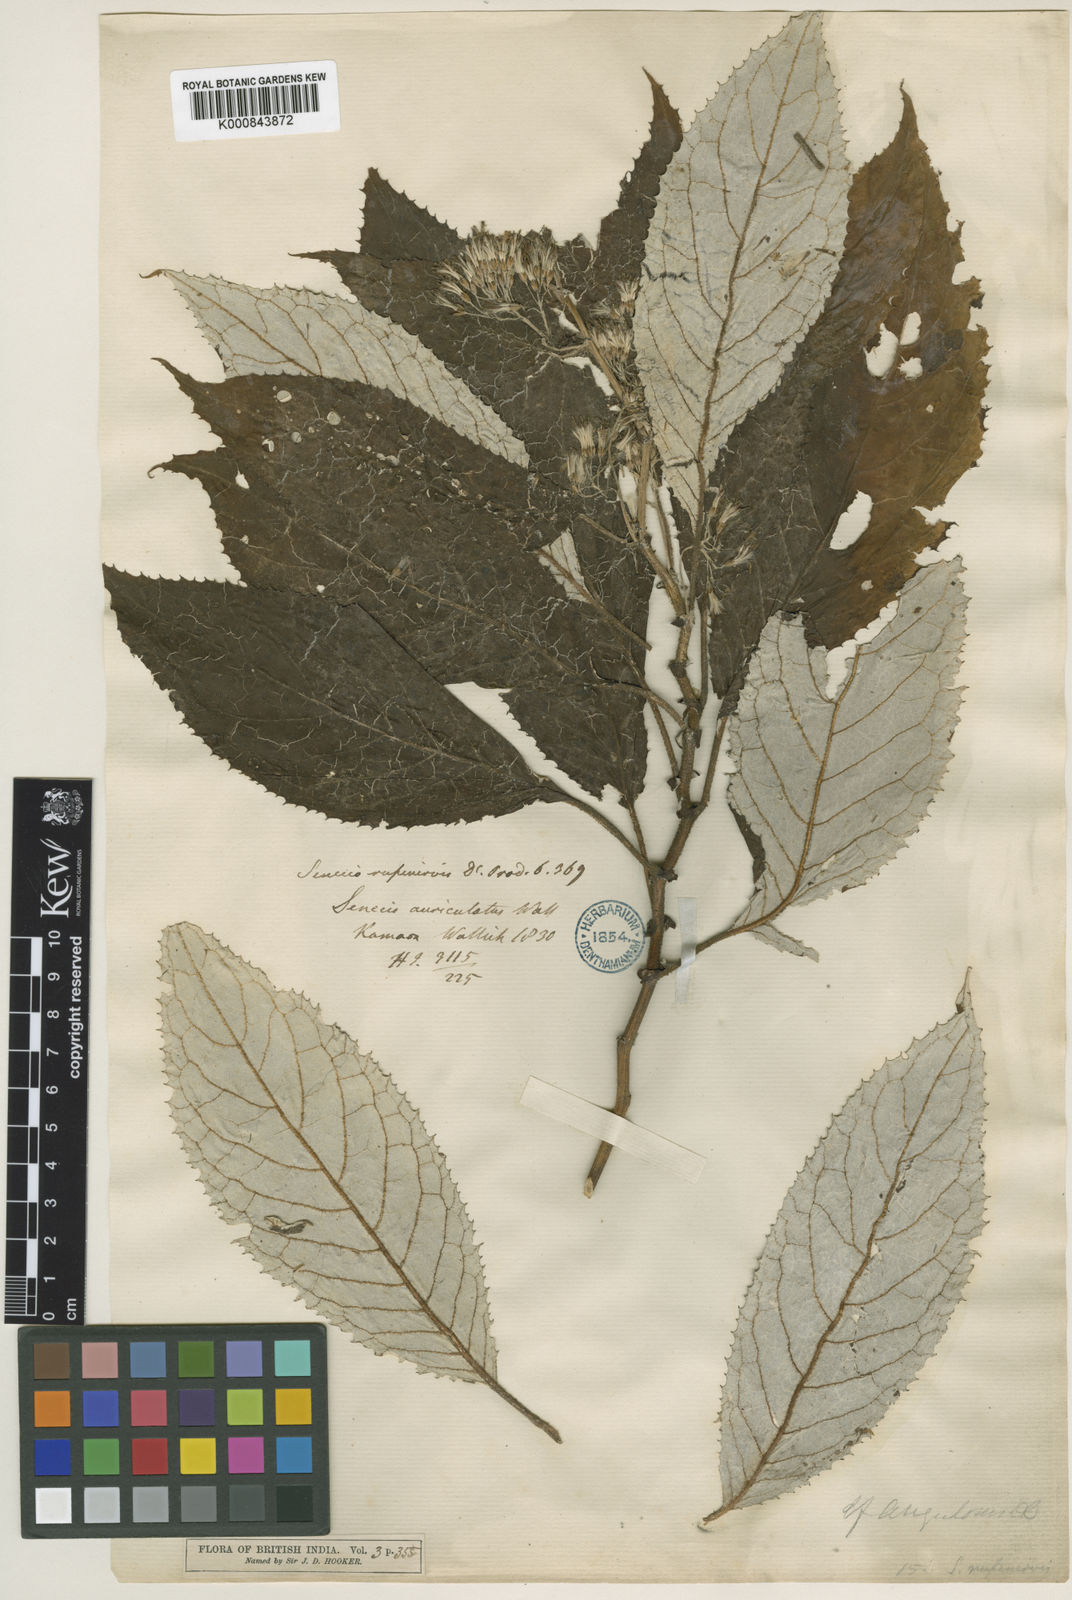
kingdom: Plantae
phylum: Tracheophyta
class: Magnoliopsida
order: Asterales
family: Asteraceae
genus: Synotis
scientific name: Synotis rufinervis
